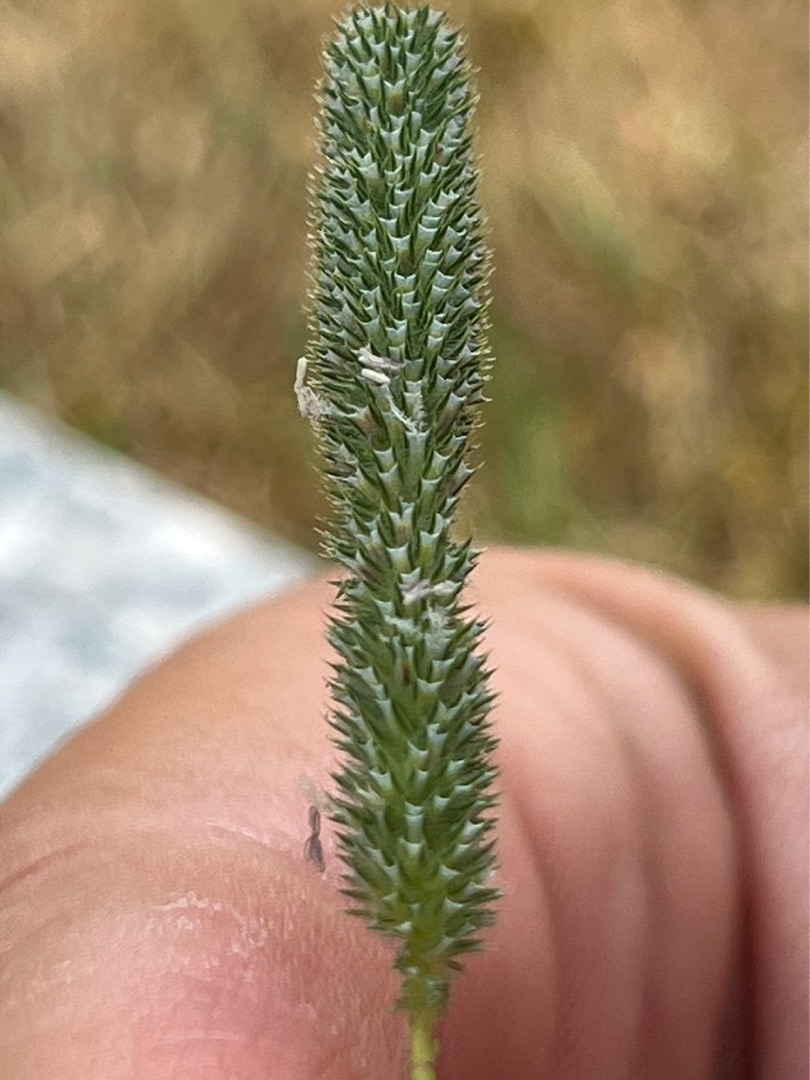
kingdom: Plantae
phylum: Tracheophyta
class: Liliopsida
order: Poales
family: Poaceae
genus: Phleum
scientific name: Phleum pratense
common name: Eng-rottehale
